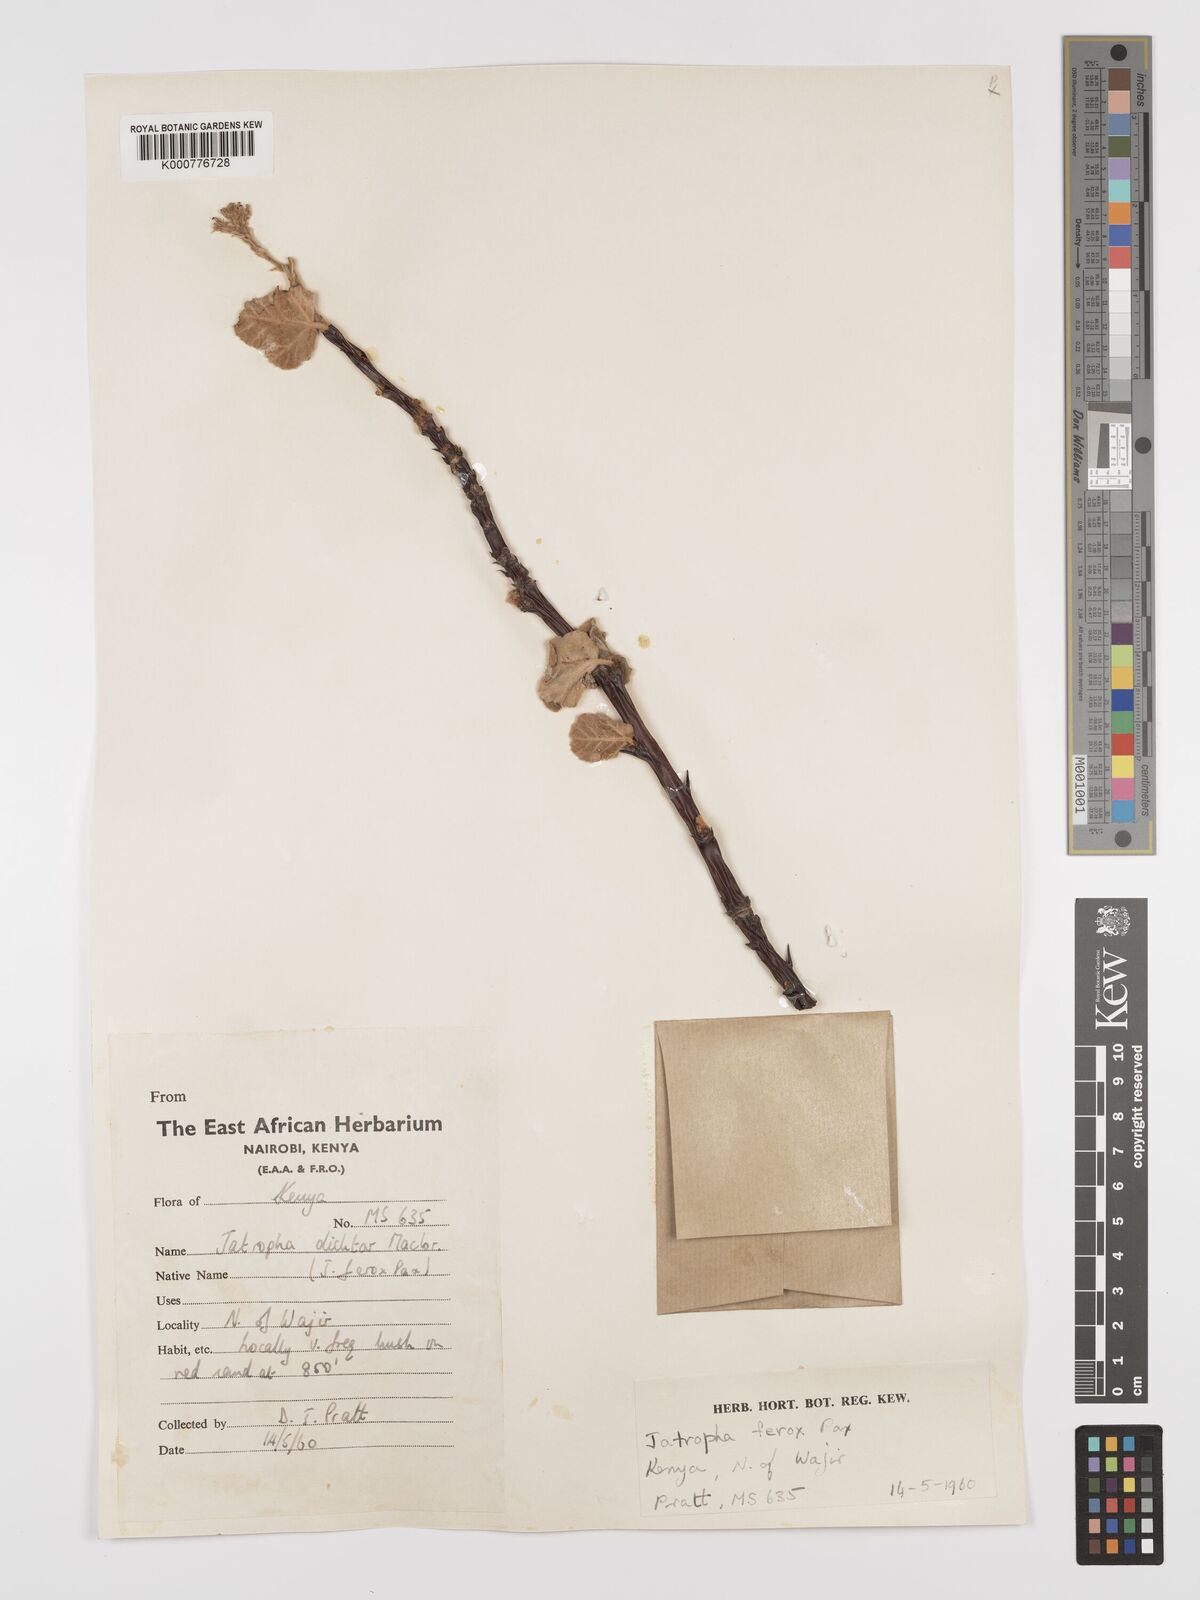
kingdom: Plantae
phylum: Tracheophyta
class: Magnoliopsida
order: Malpighiales
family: Euphorbiaceae
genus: Jatropha
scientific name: Jatropha dichtar
